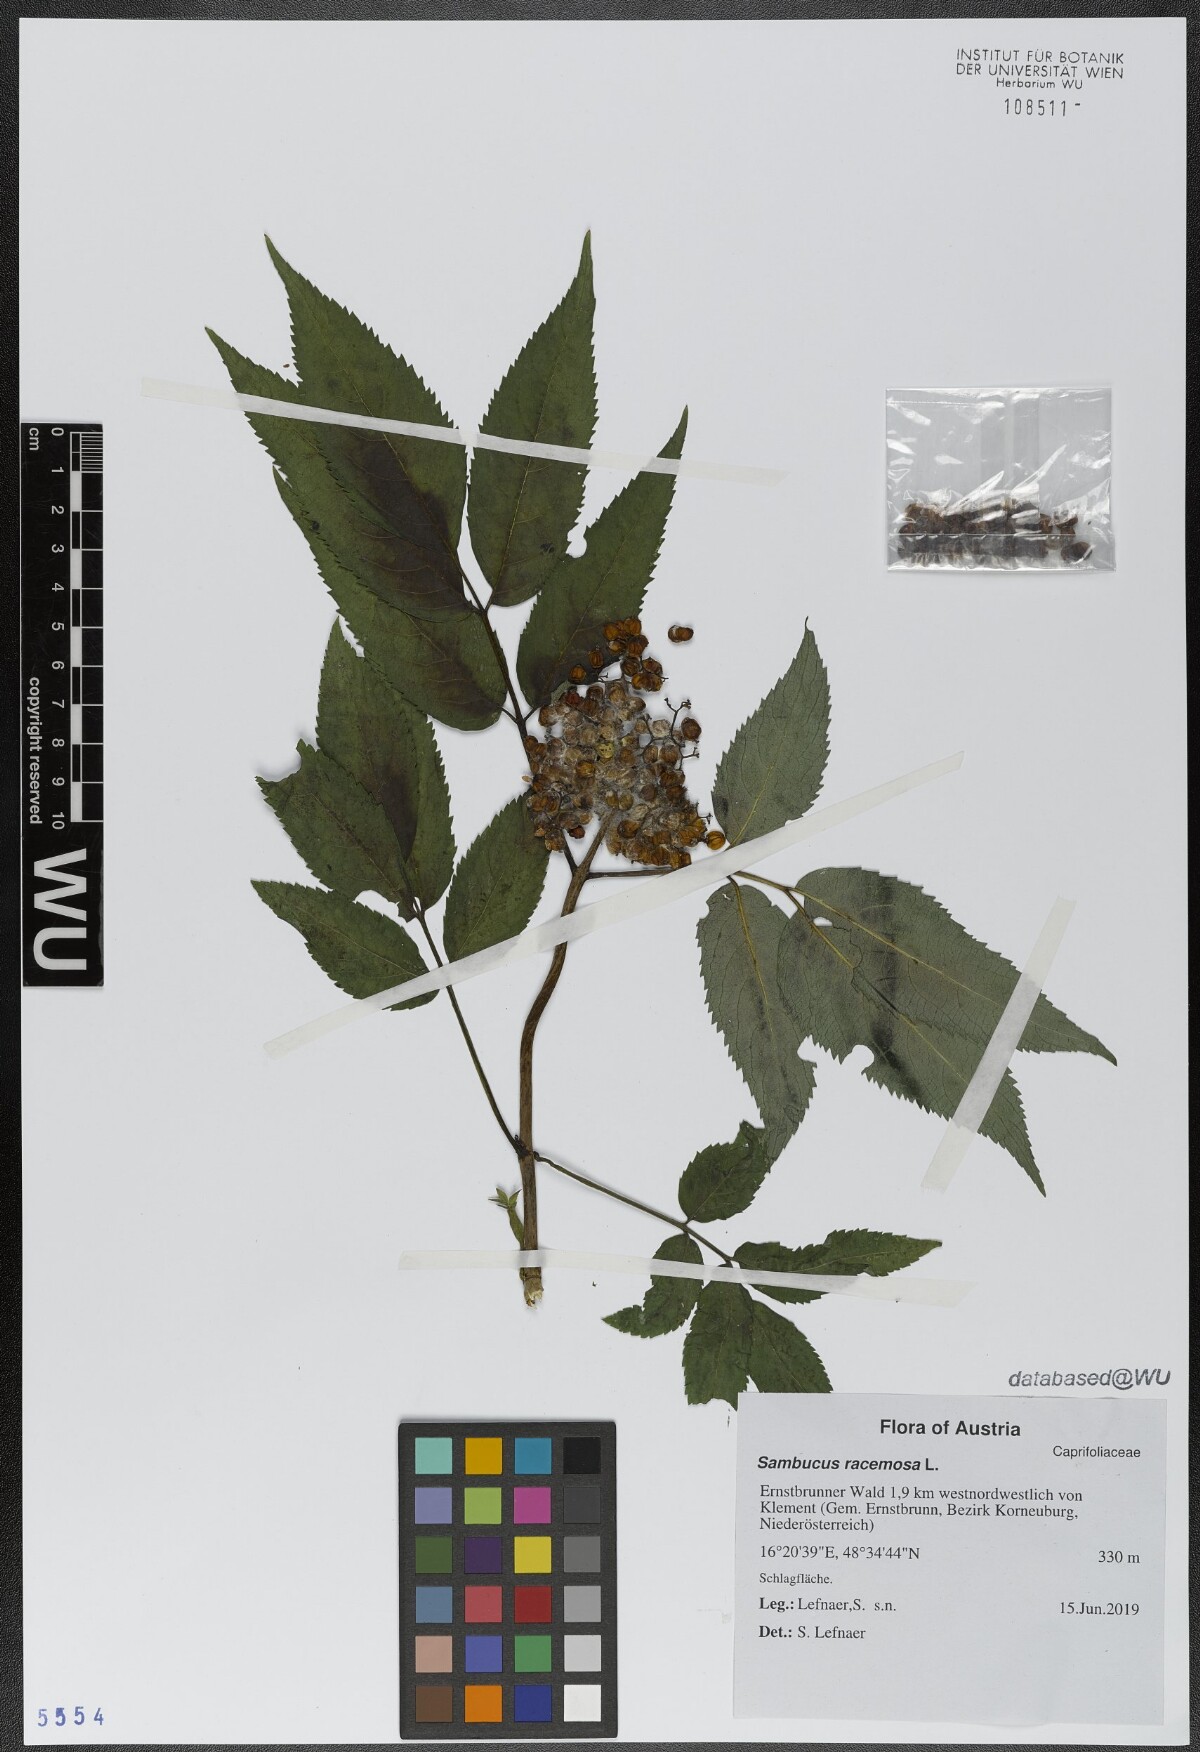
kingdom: Plantae
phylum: Tracheophyta
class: Magnoliopsida
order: Dipsacales
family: Viburnaceae
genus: Sambucus
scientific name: Sambucus racemosa
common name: Red-berried elder
